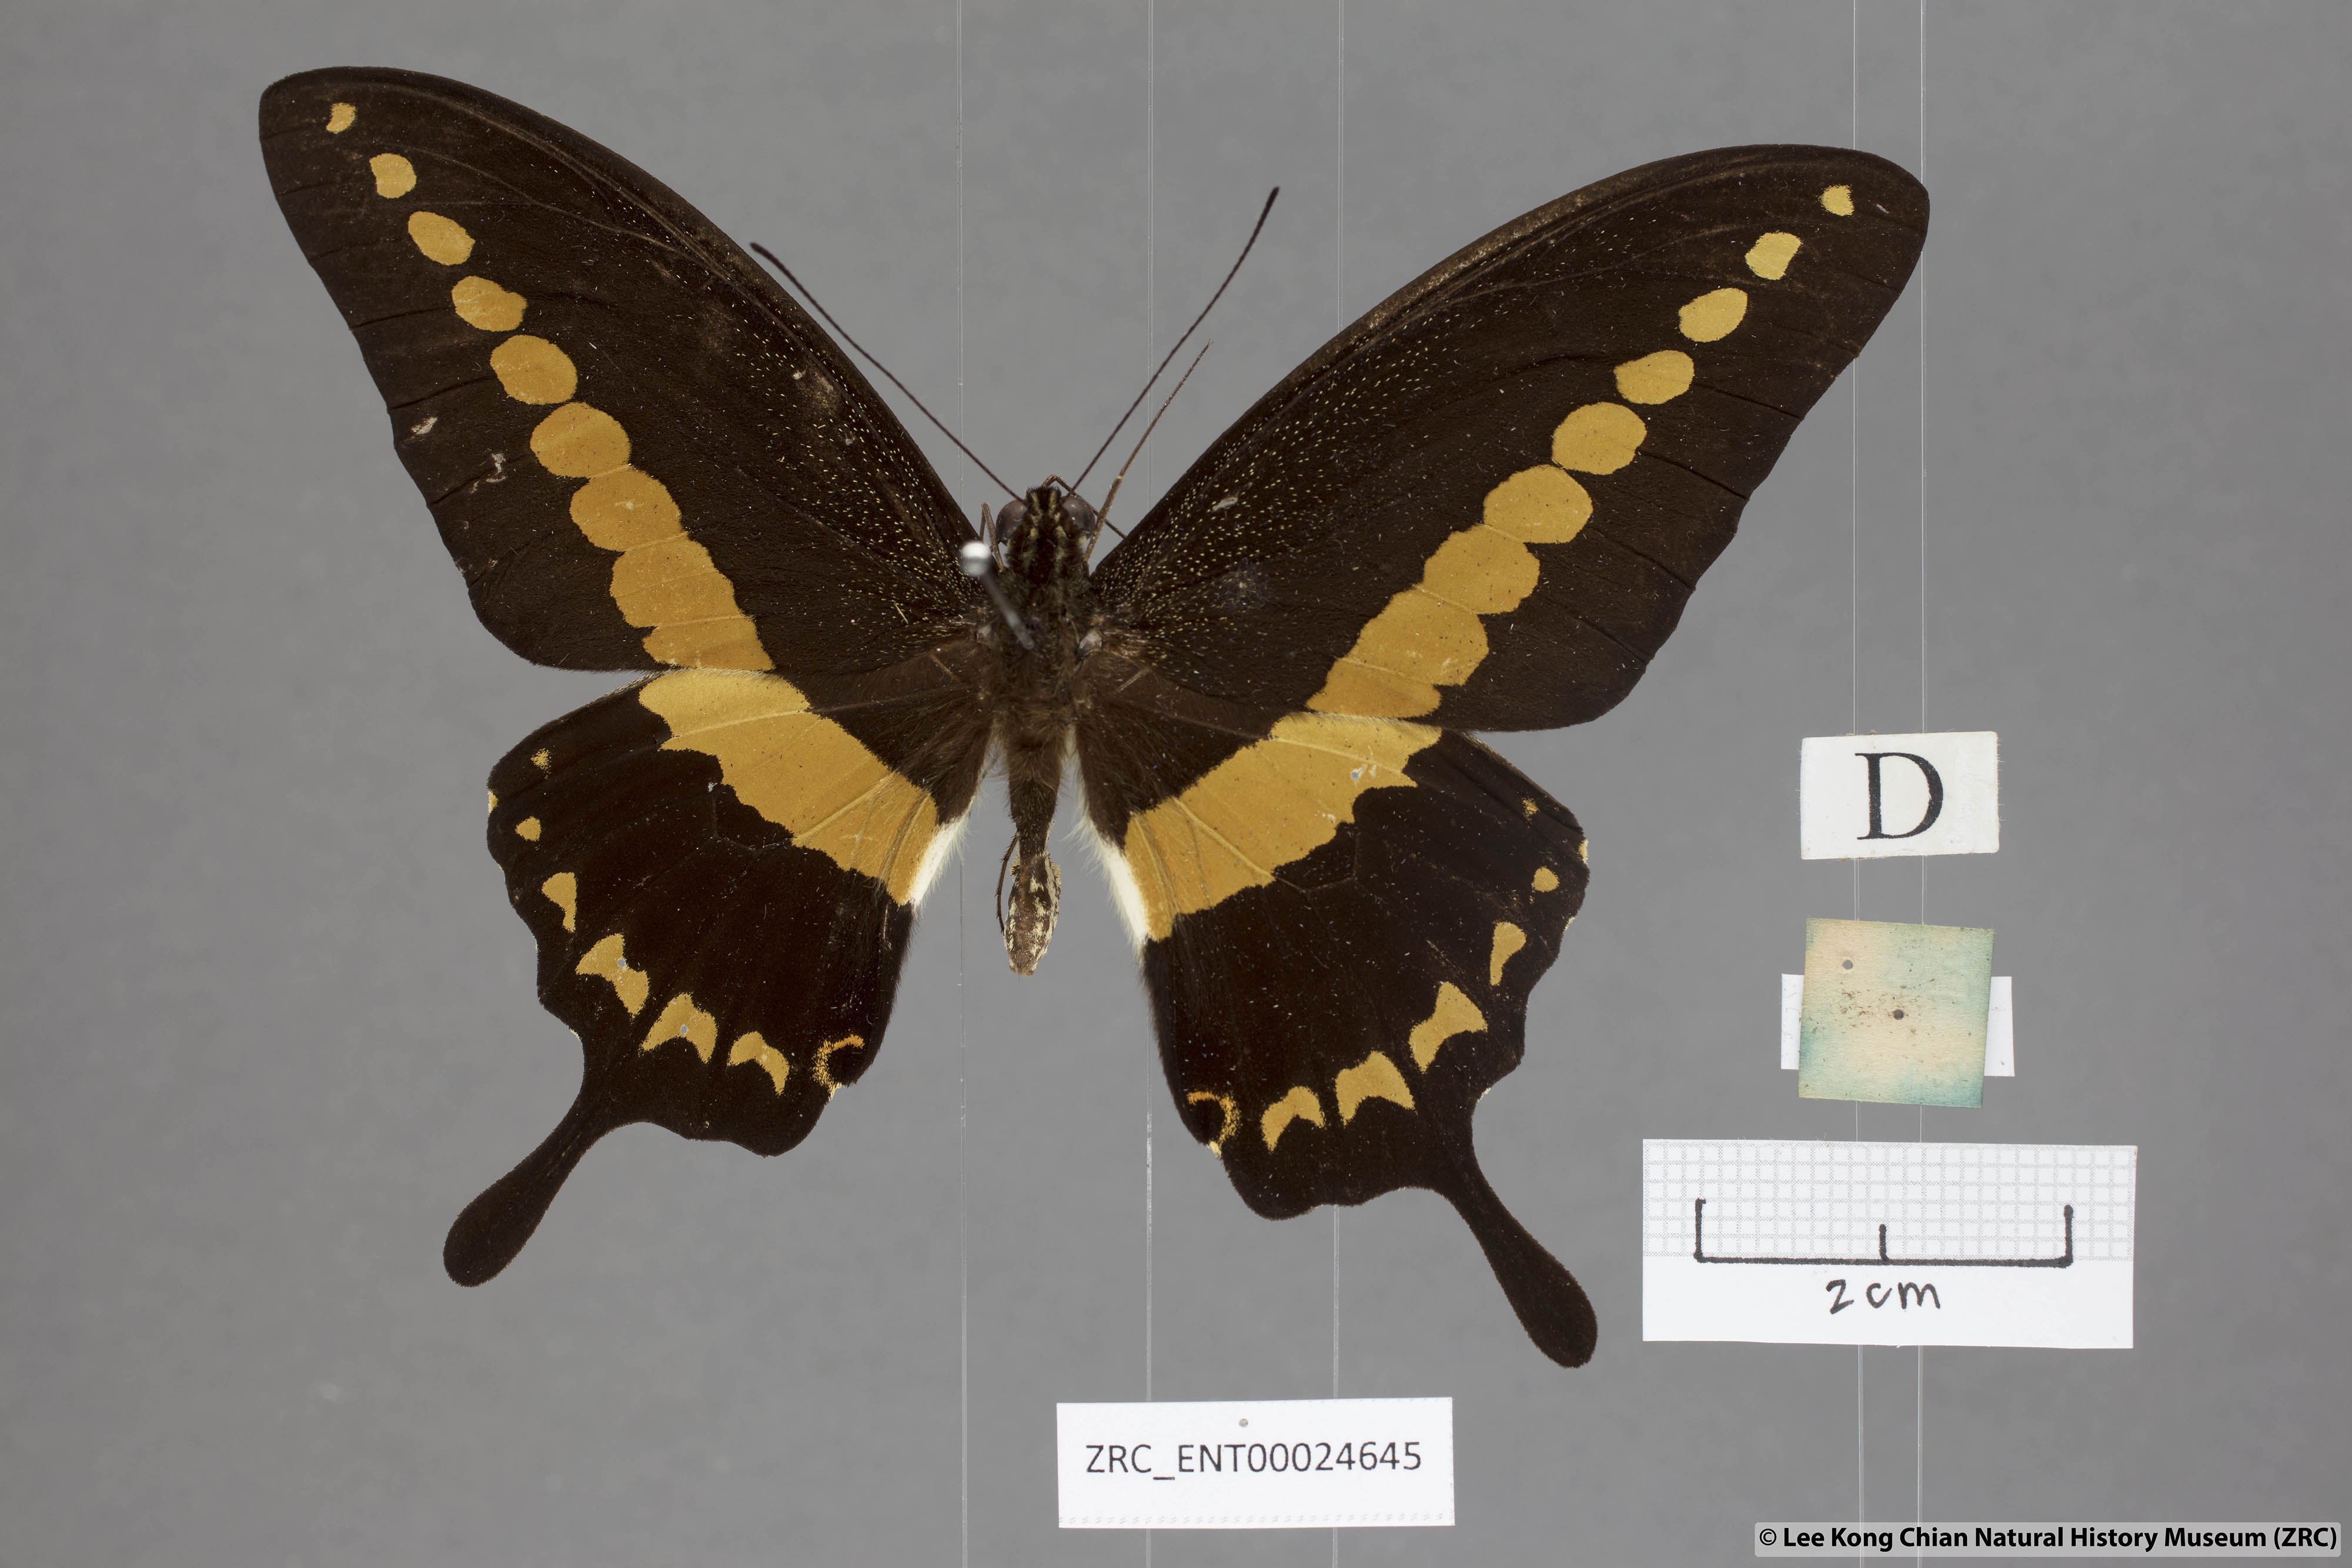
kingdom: Animalia
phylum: Arthropoda
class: Insecta
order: Lepidoptera
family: Papilionidae
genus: Papilio
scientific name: Papilio demolion
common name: Banded swallowtail
